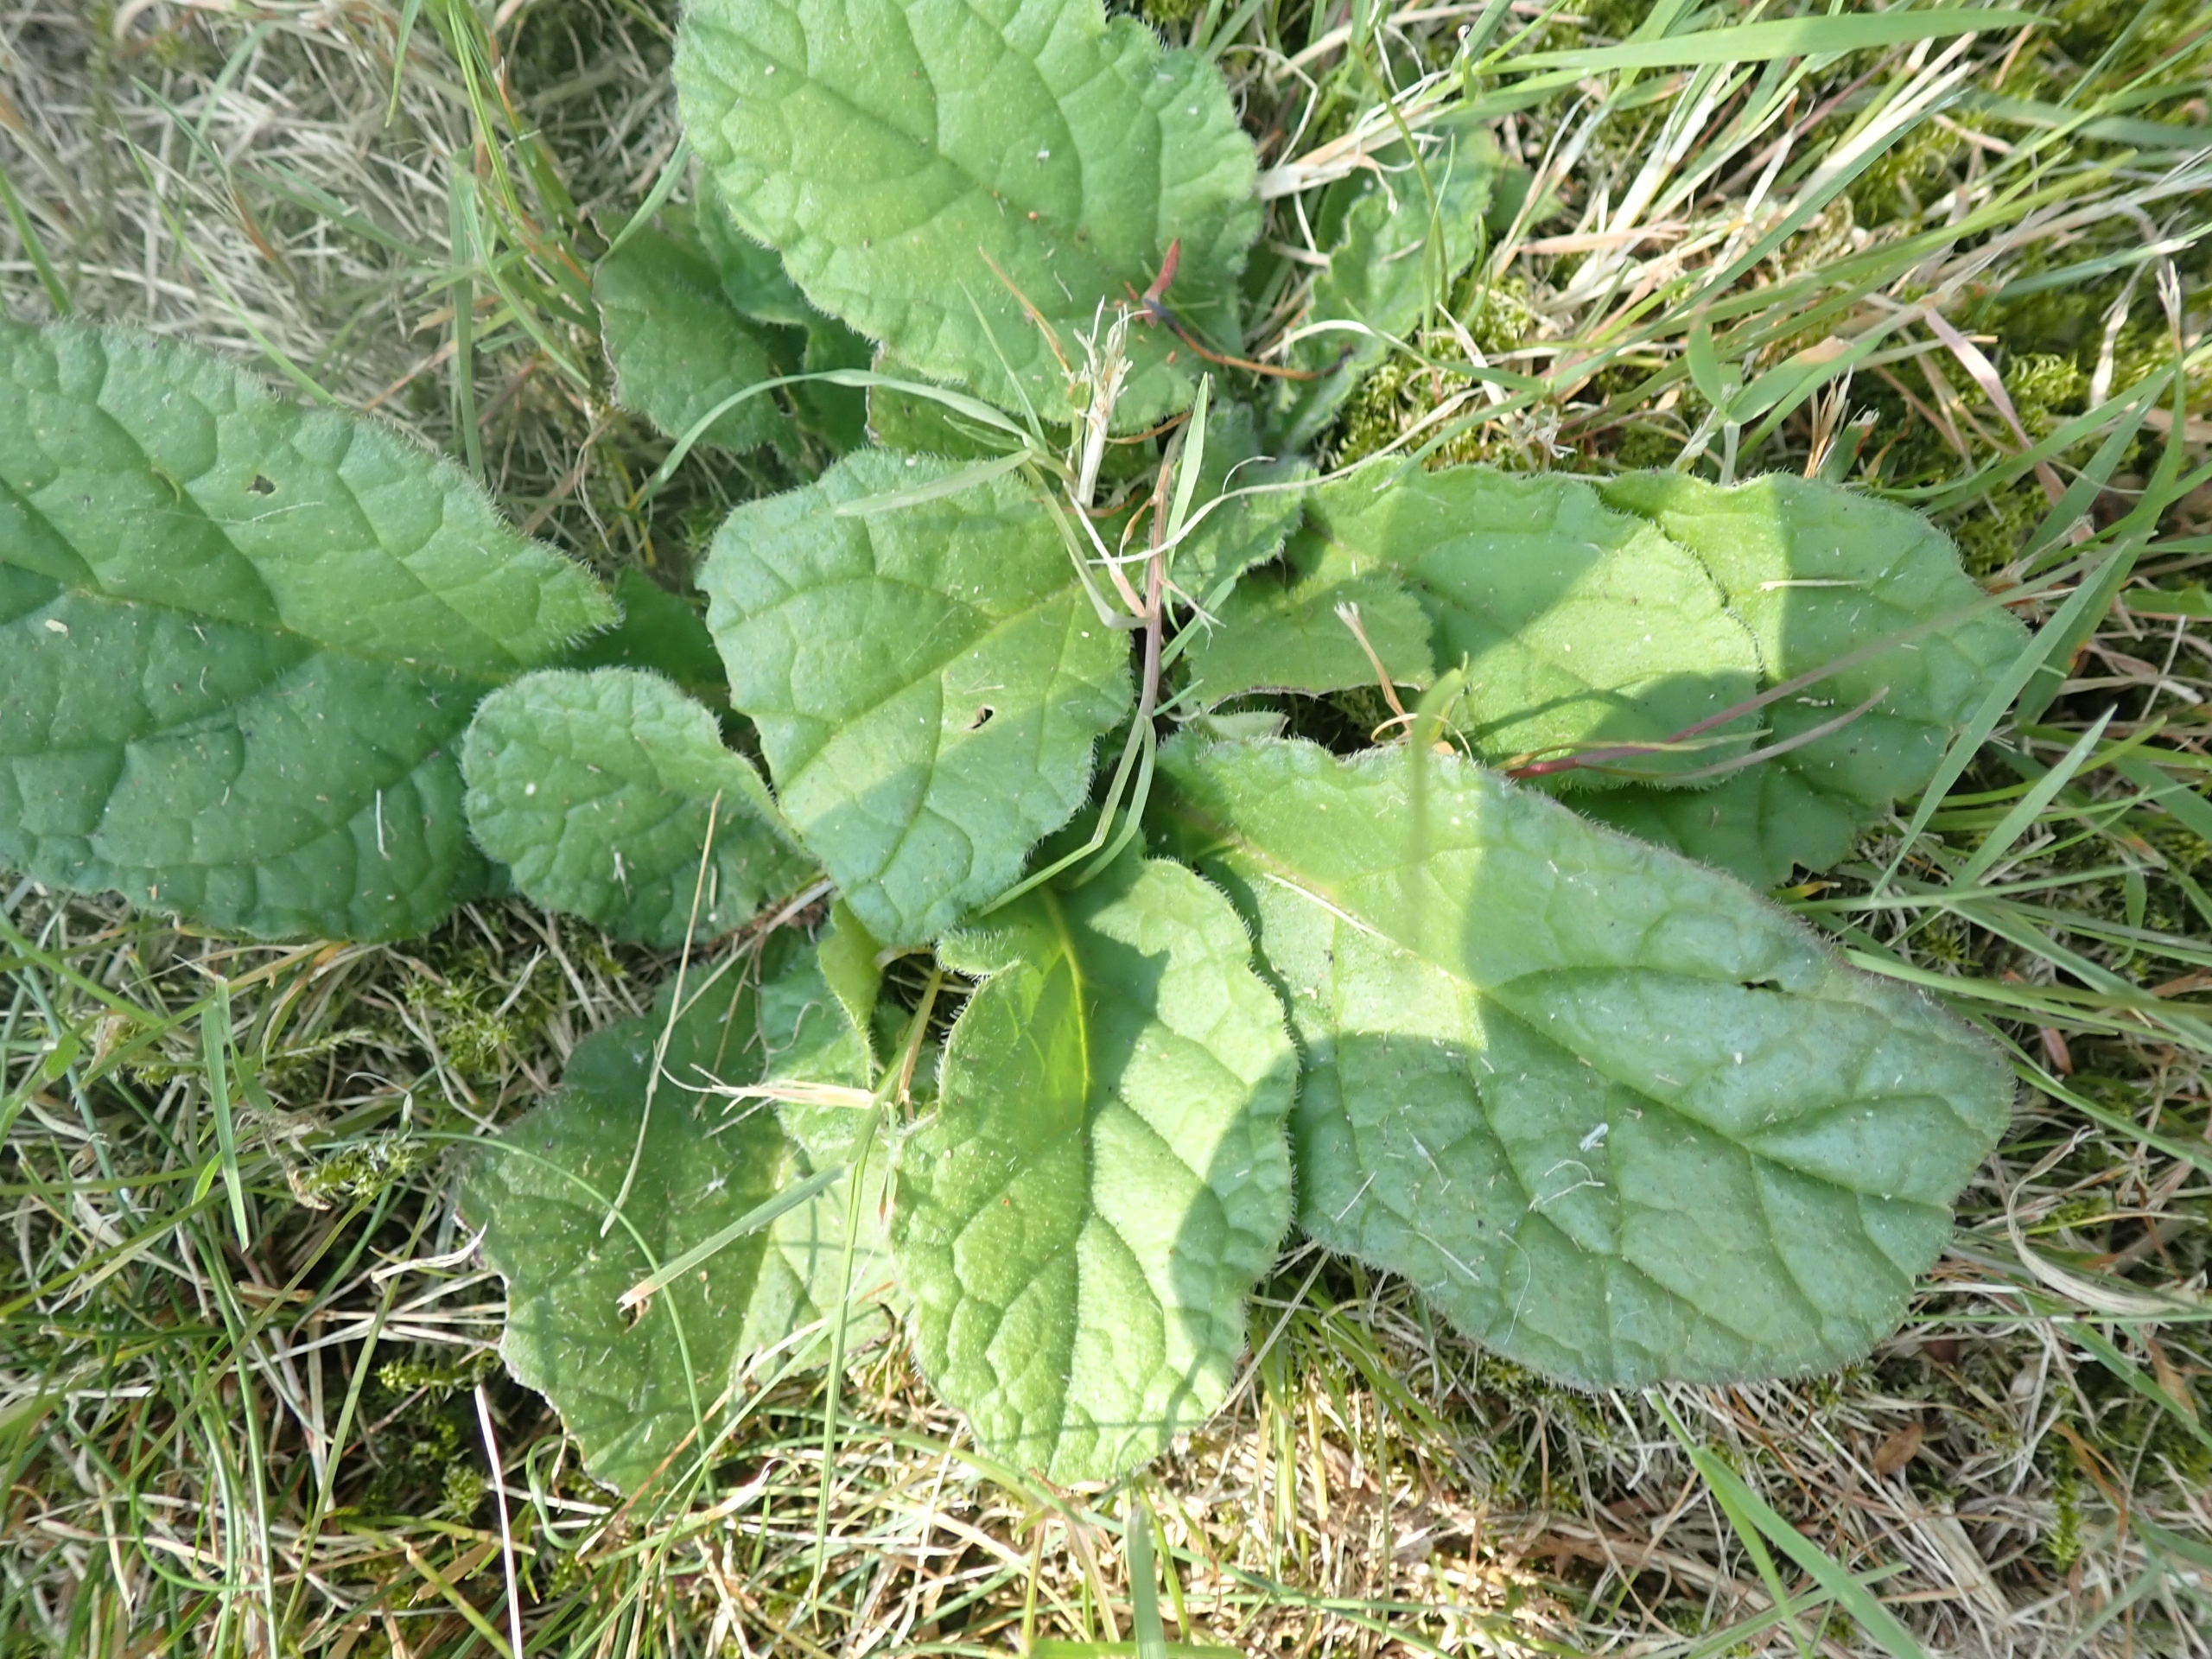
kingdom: Plantae
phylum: Tracheophyta
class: Magnoliopsida
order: Lamiales
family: Lamiaceae
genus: Ajuga
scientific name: Ajuga pyramidalis
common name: Pyramide-læbeløs
